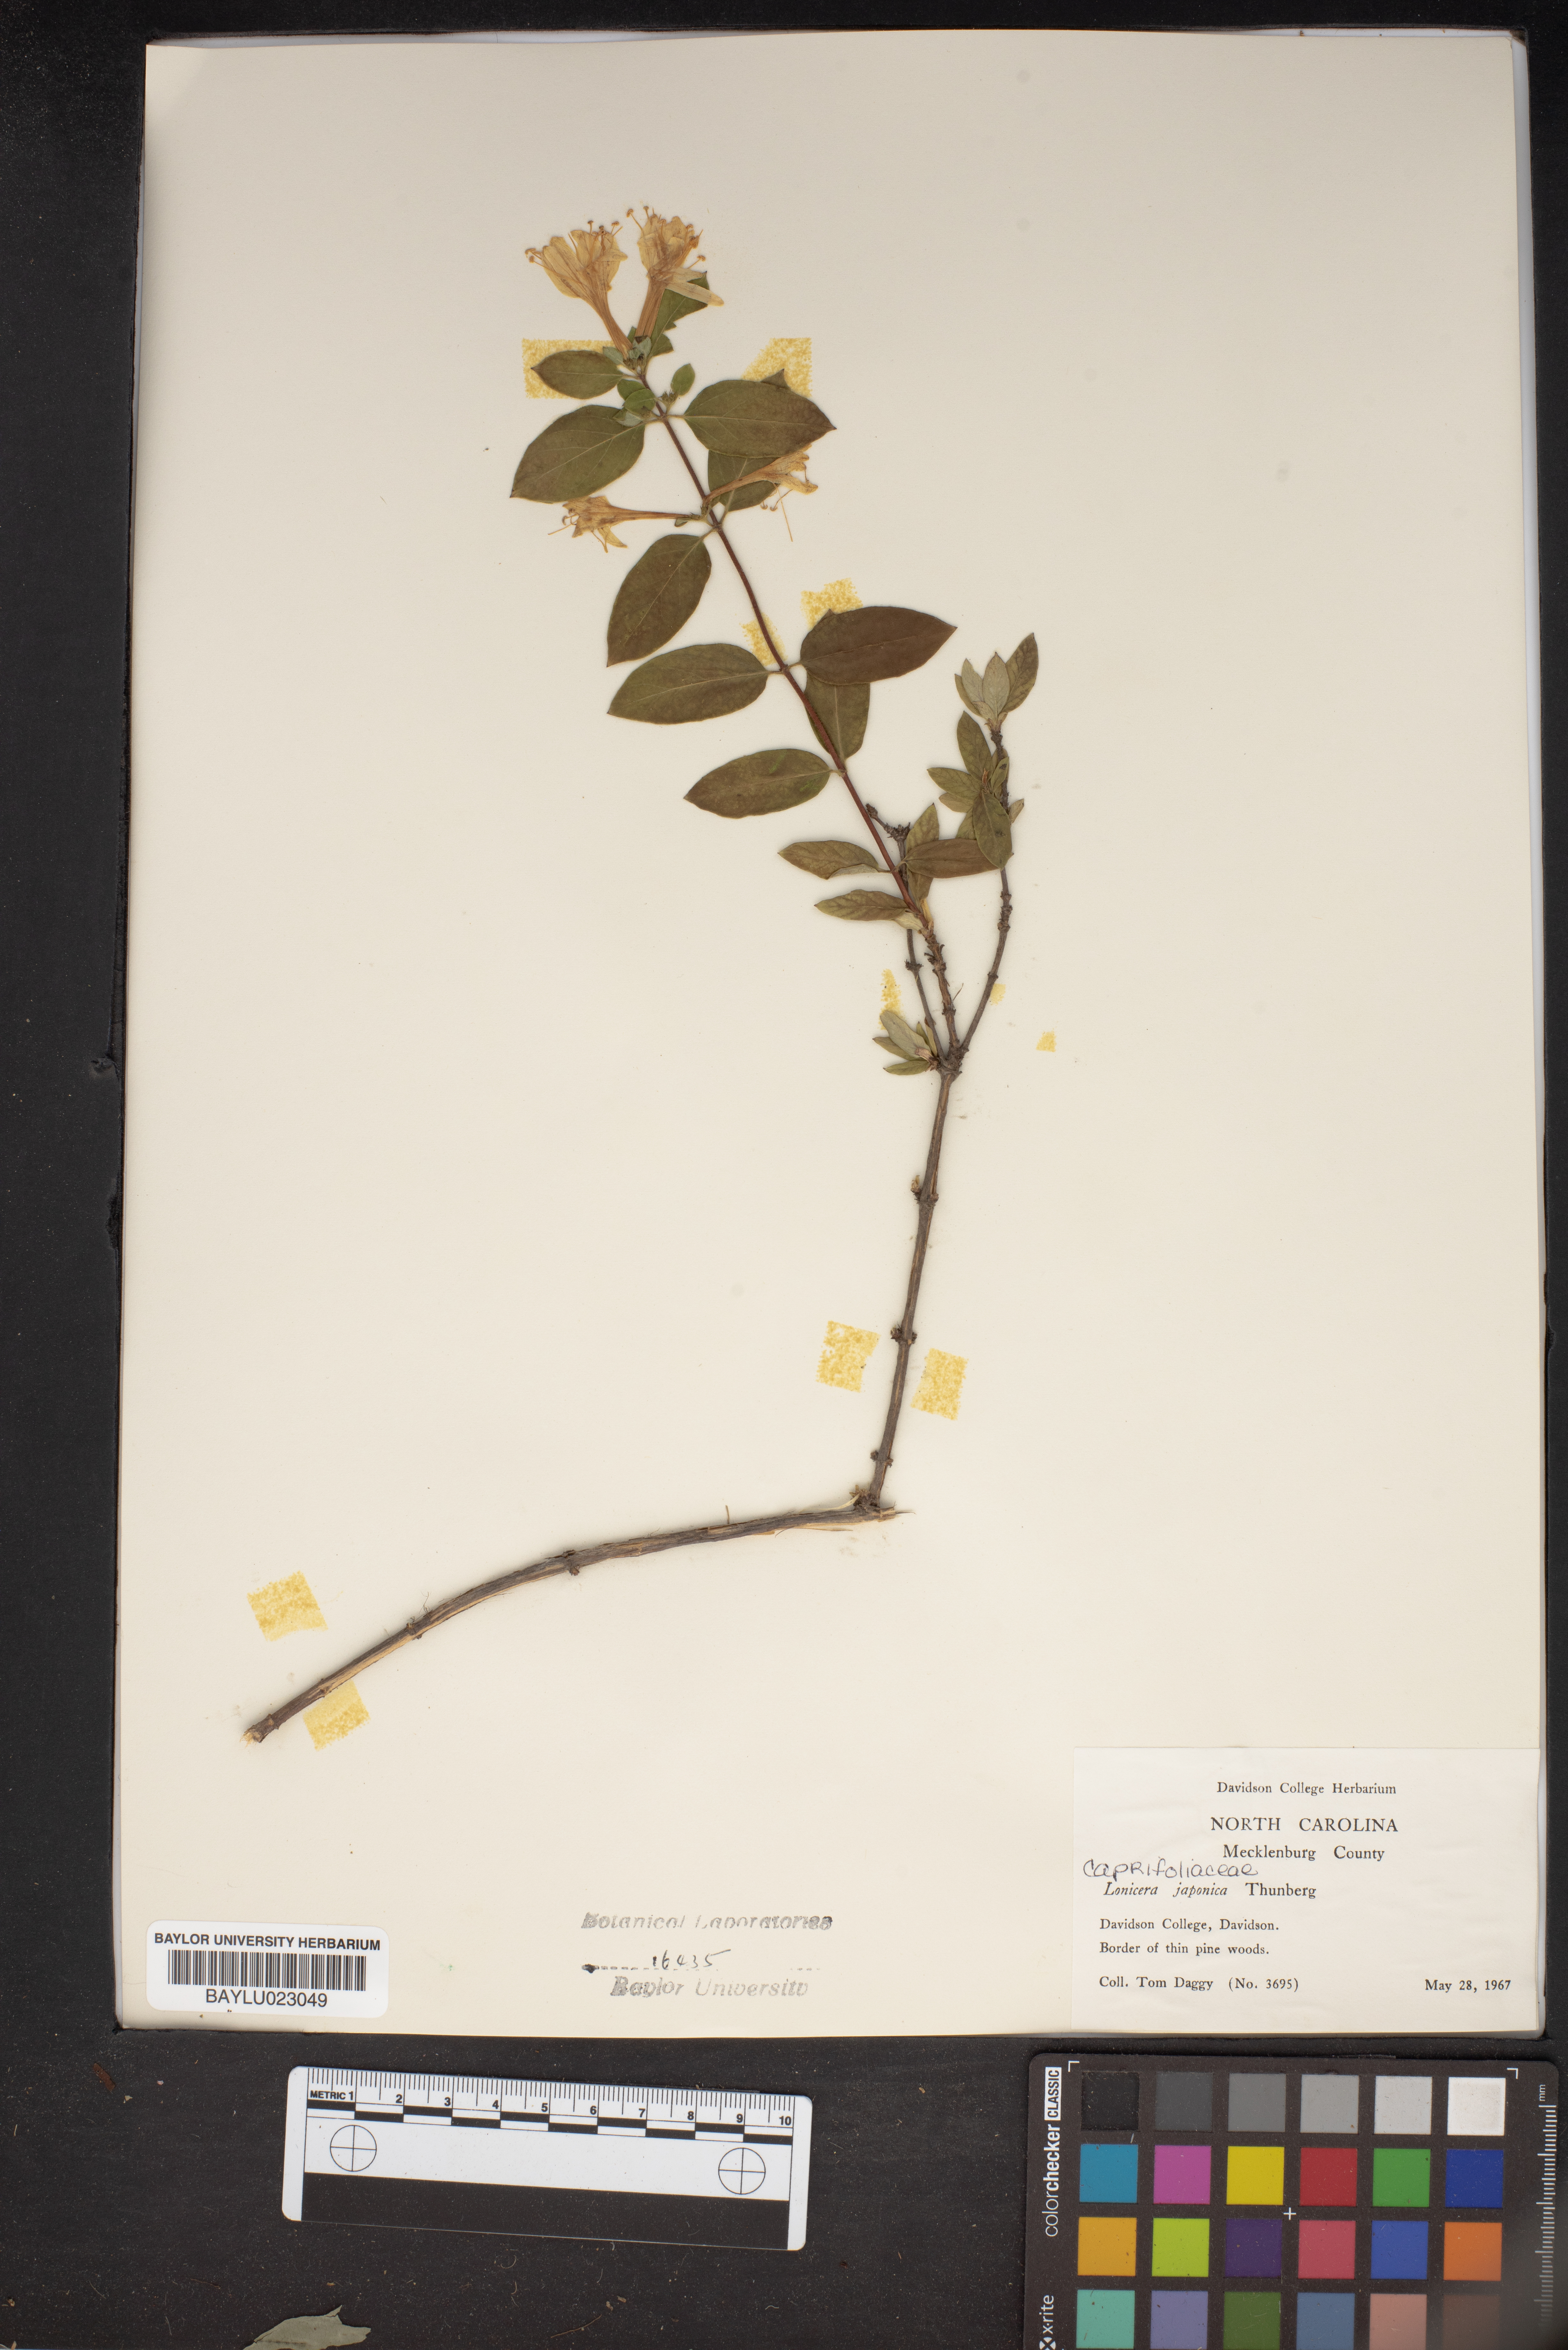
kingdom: Plantae
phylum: Tracheophyta
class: Magnoliopsida
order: Dipsacales
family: Caprifoliaceae
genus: Lonicera
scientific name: Lonicera japonica
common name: Japanese honeysuckle
